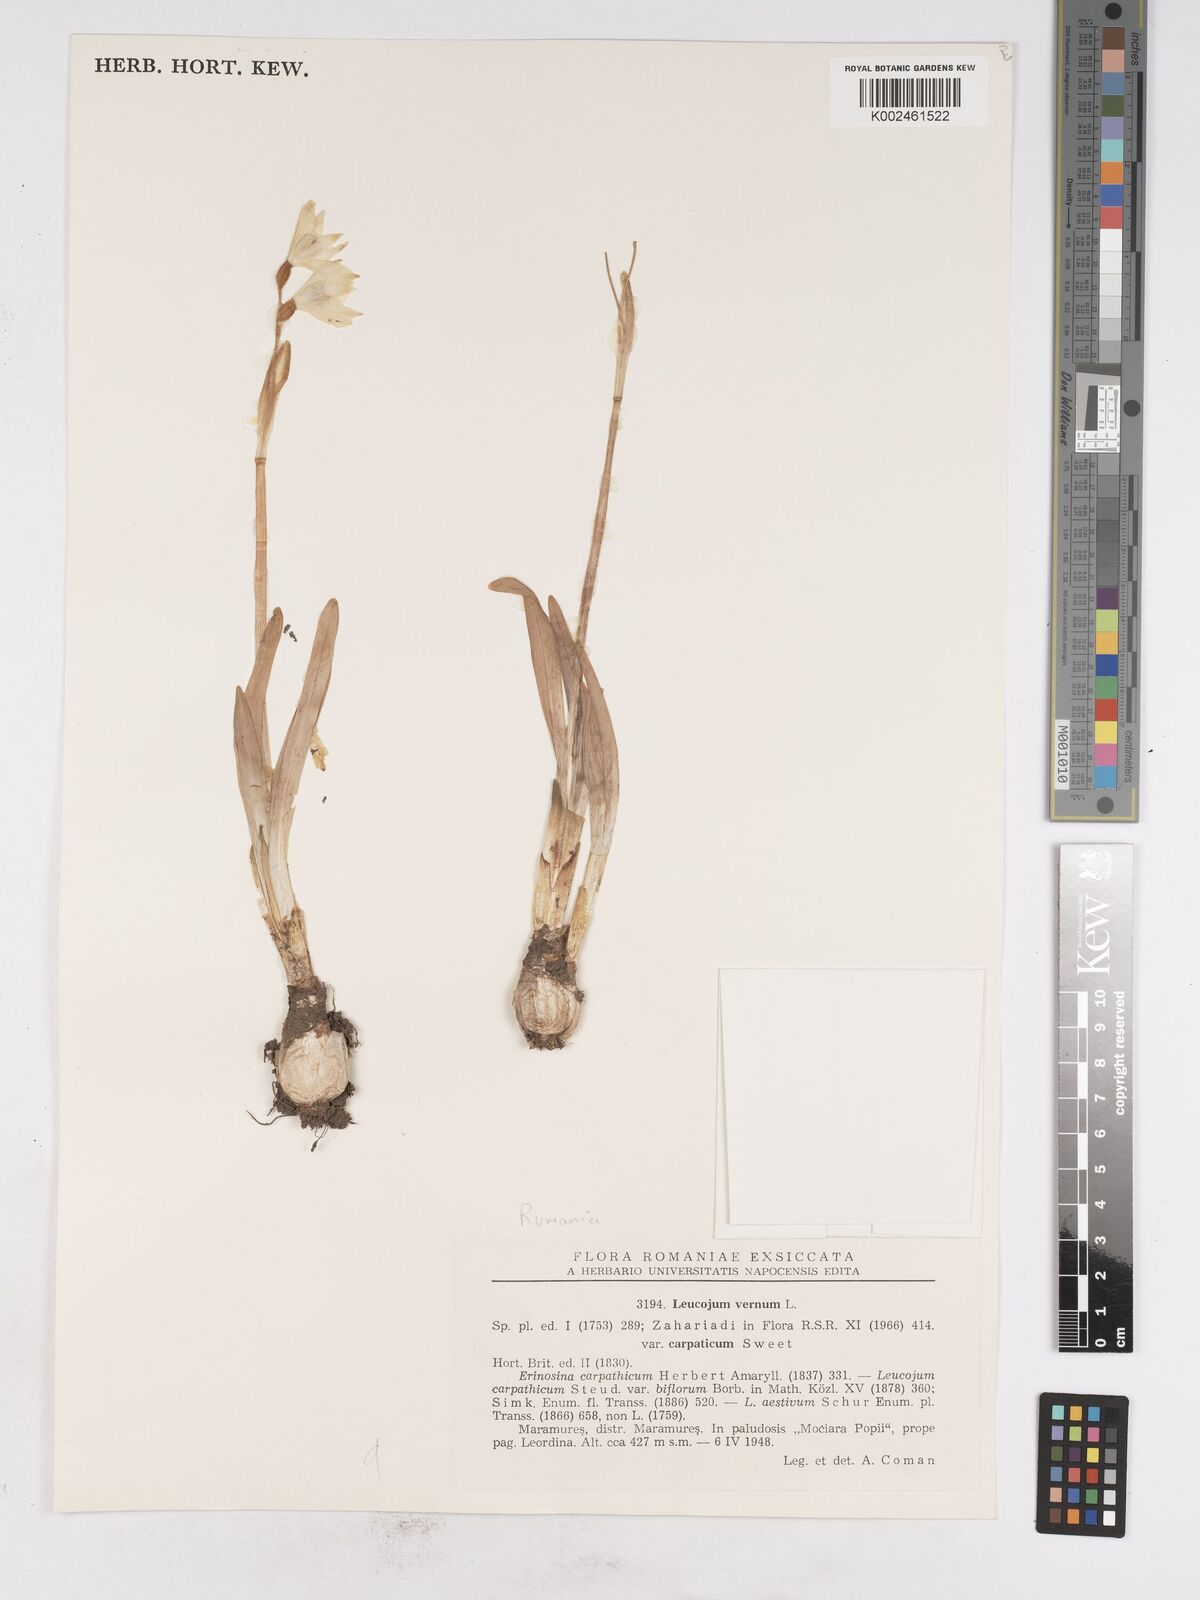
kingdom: Plantae
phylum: Tracheophyta
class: Liliopsida
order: Asparagales
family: Amaryllidaceae
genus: Leucojum
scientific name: Leucojum vernum
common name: Spring snowflake
